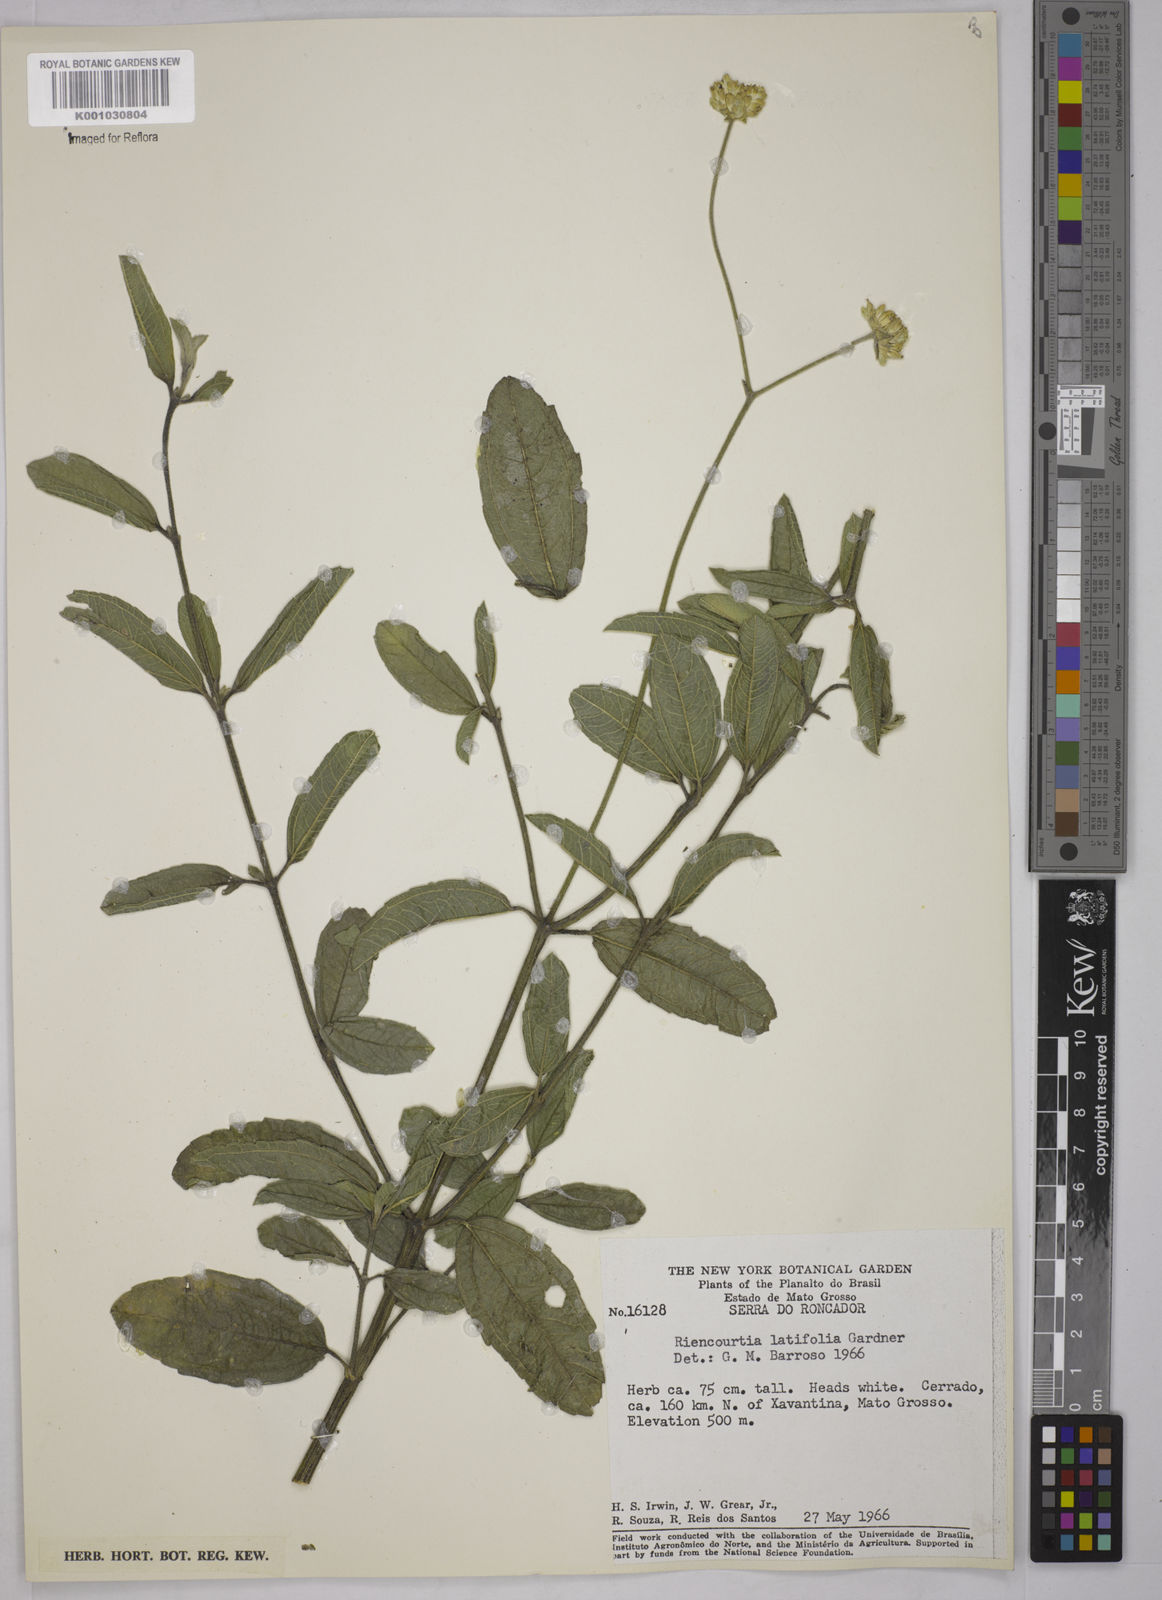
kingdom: Plantae
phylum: Tracheophyta
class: Magnoliopsida
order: Asterales
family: Asteraceae
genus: Riencourtia
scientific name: Riencourtia latifolia
